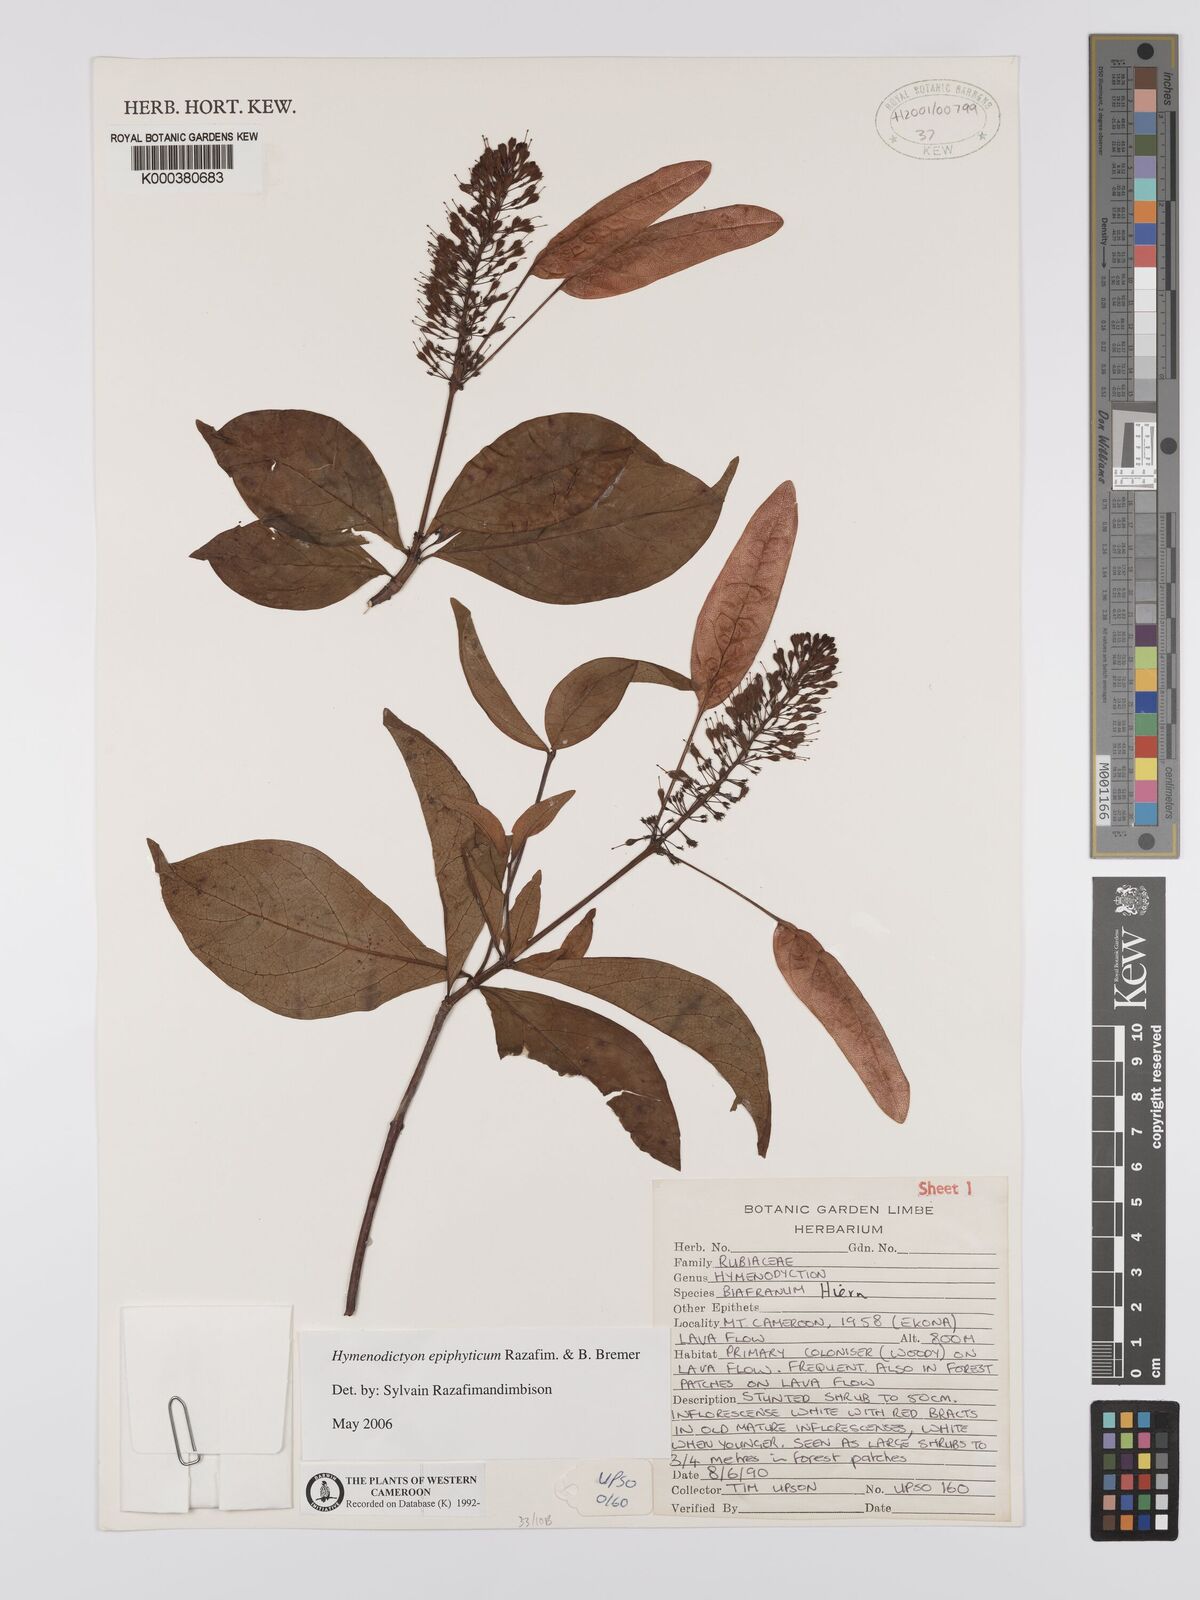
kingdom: Plantae
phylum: Tracheophyta
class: Magnoliopsida
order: Gentianales
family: Rubiaceae
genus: Hymenodictyon
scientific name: Hymenodictyon epiphyticum
